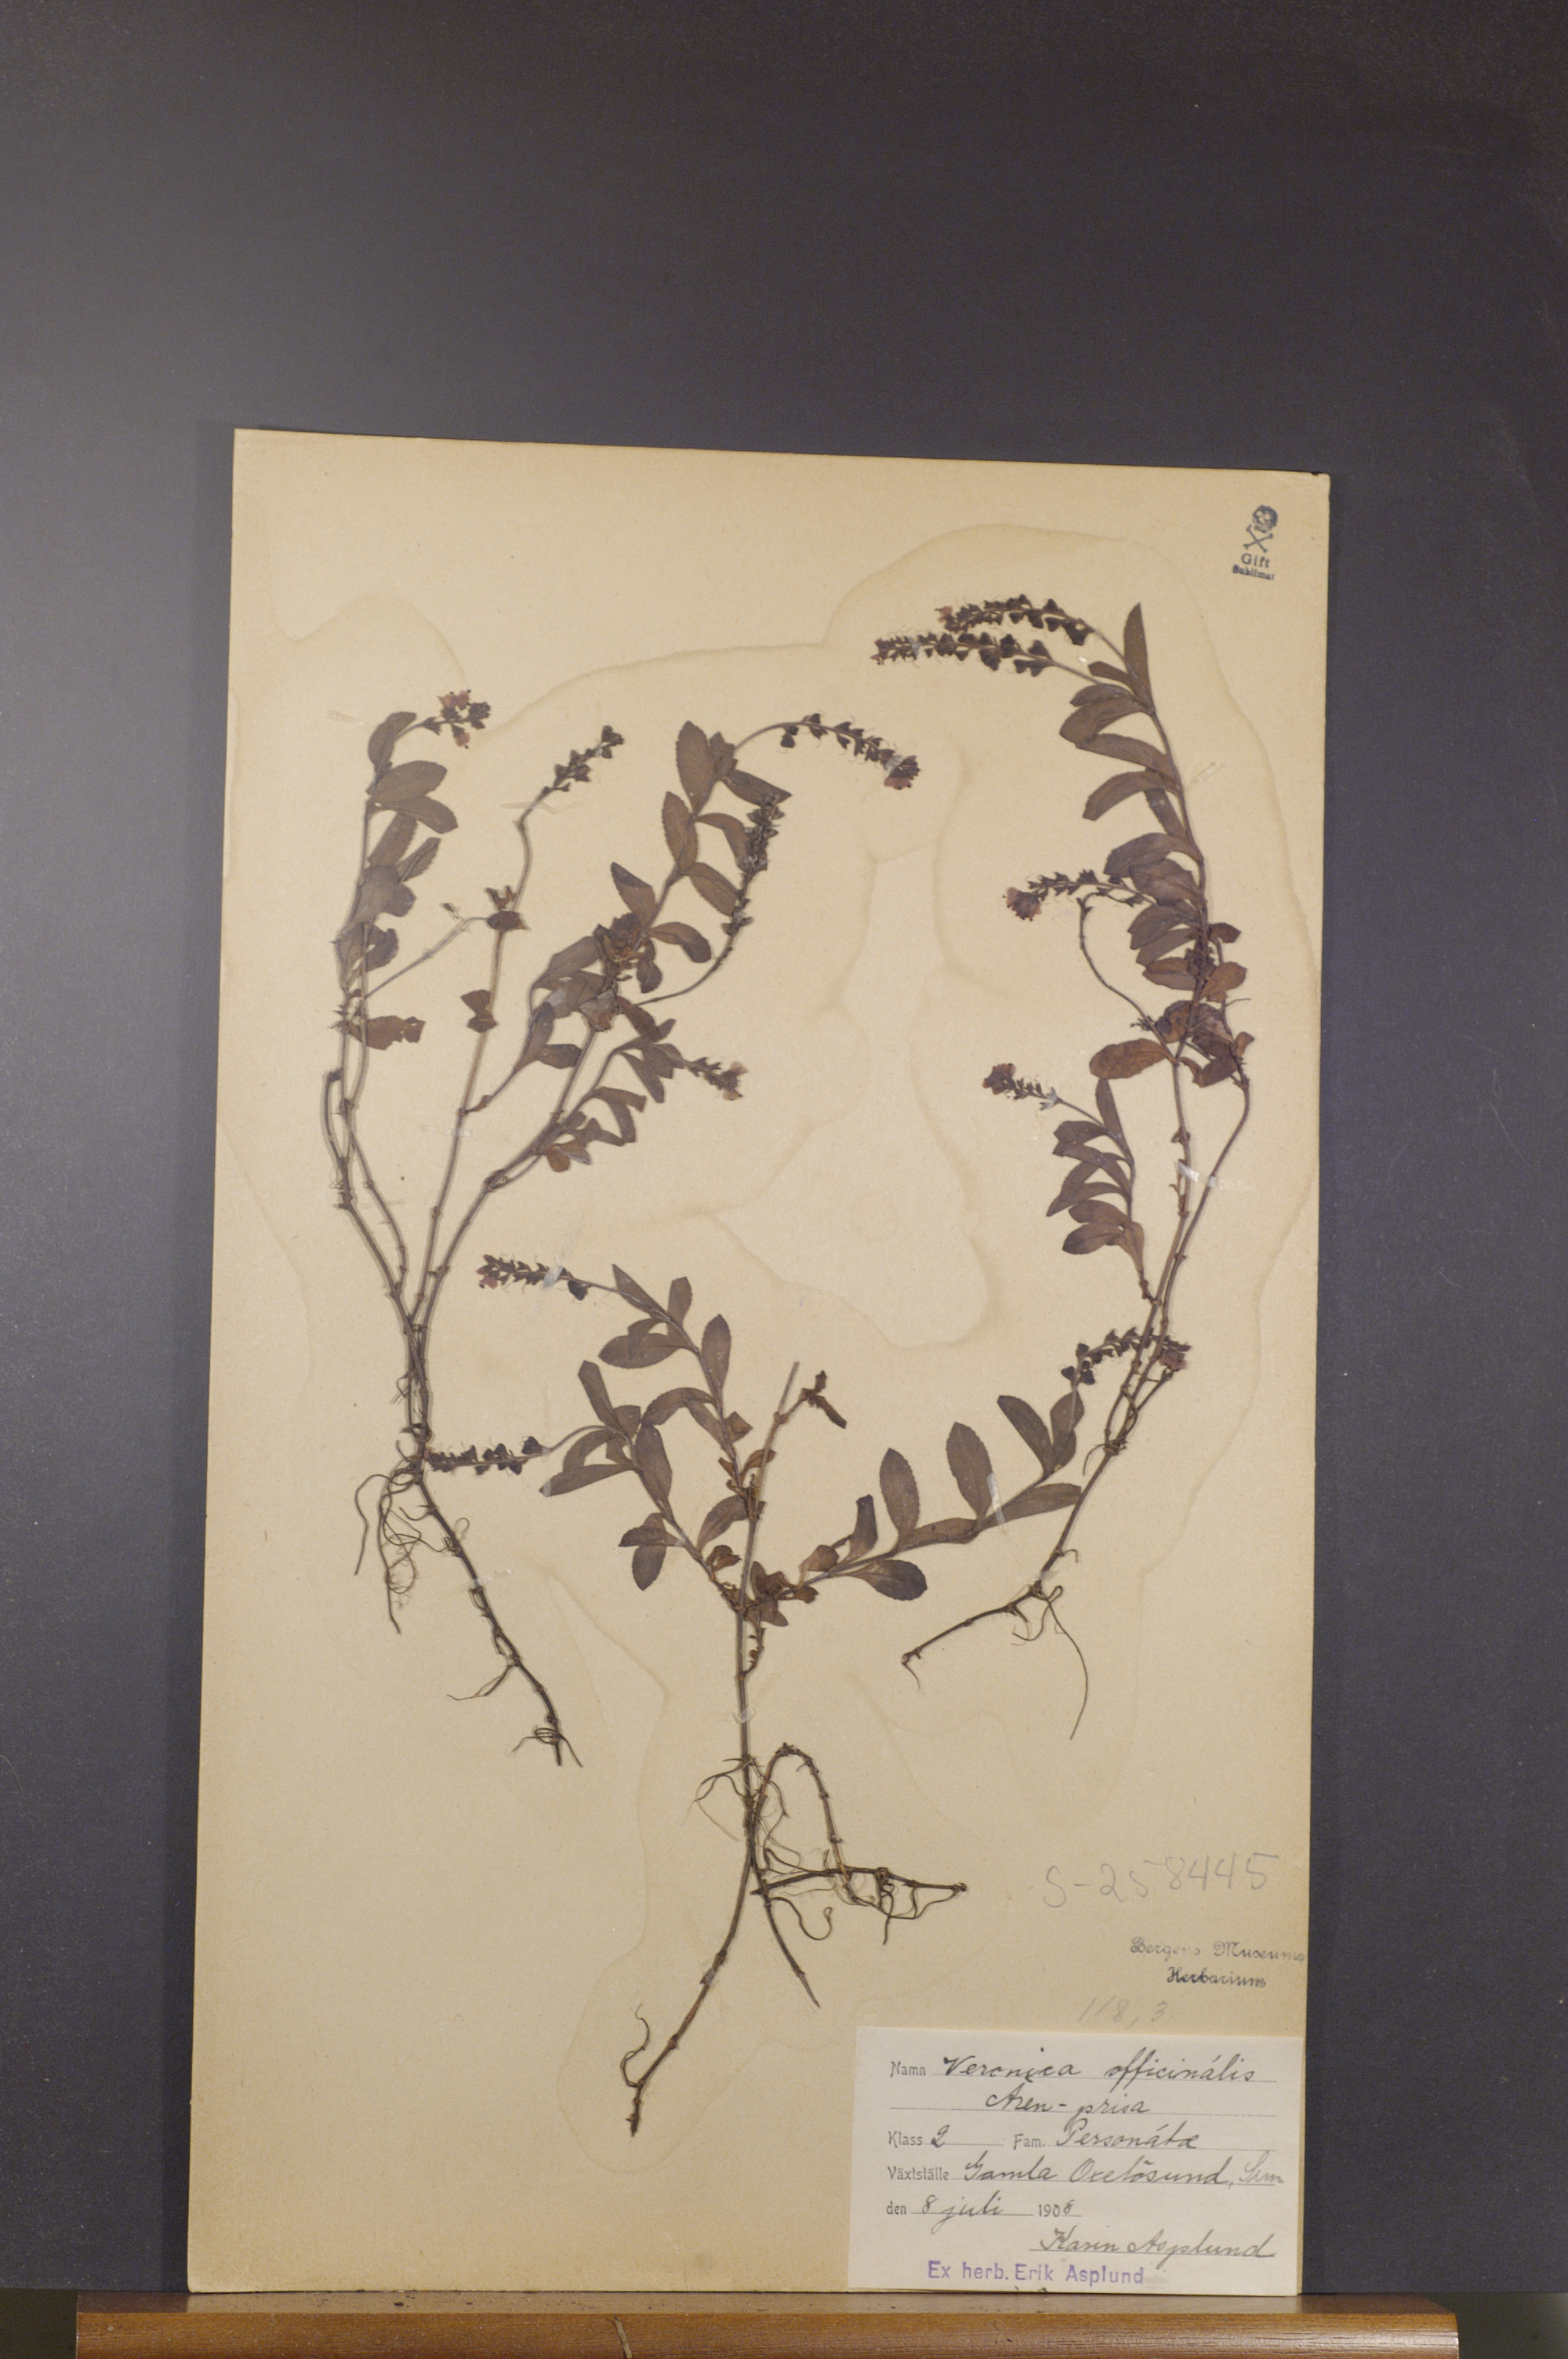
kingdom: Plantae
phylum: Tracheophyta
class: Magnoliopsida
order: Lamiales
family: Plantaginaceae
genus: Veronica
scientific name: Veronica officinalis
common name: Common speedwell
